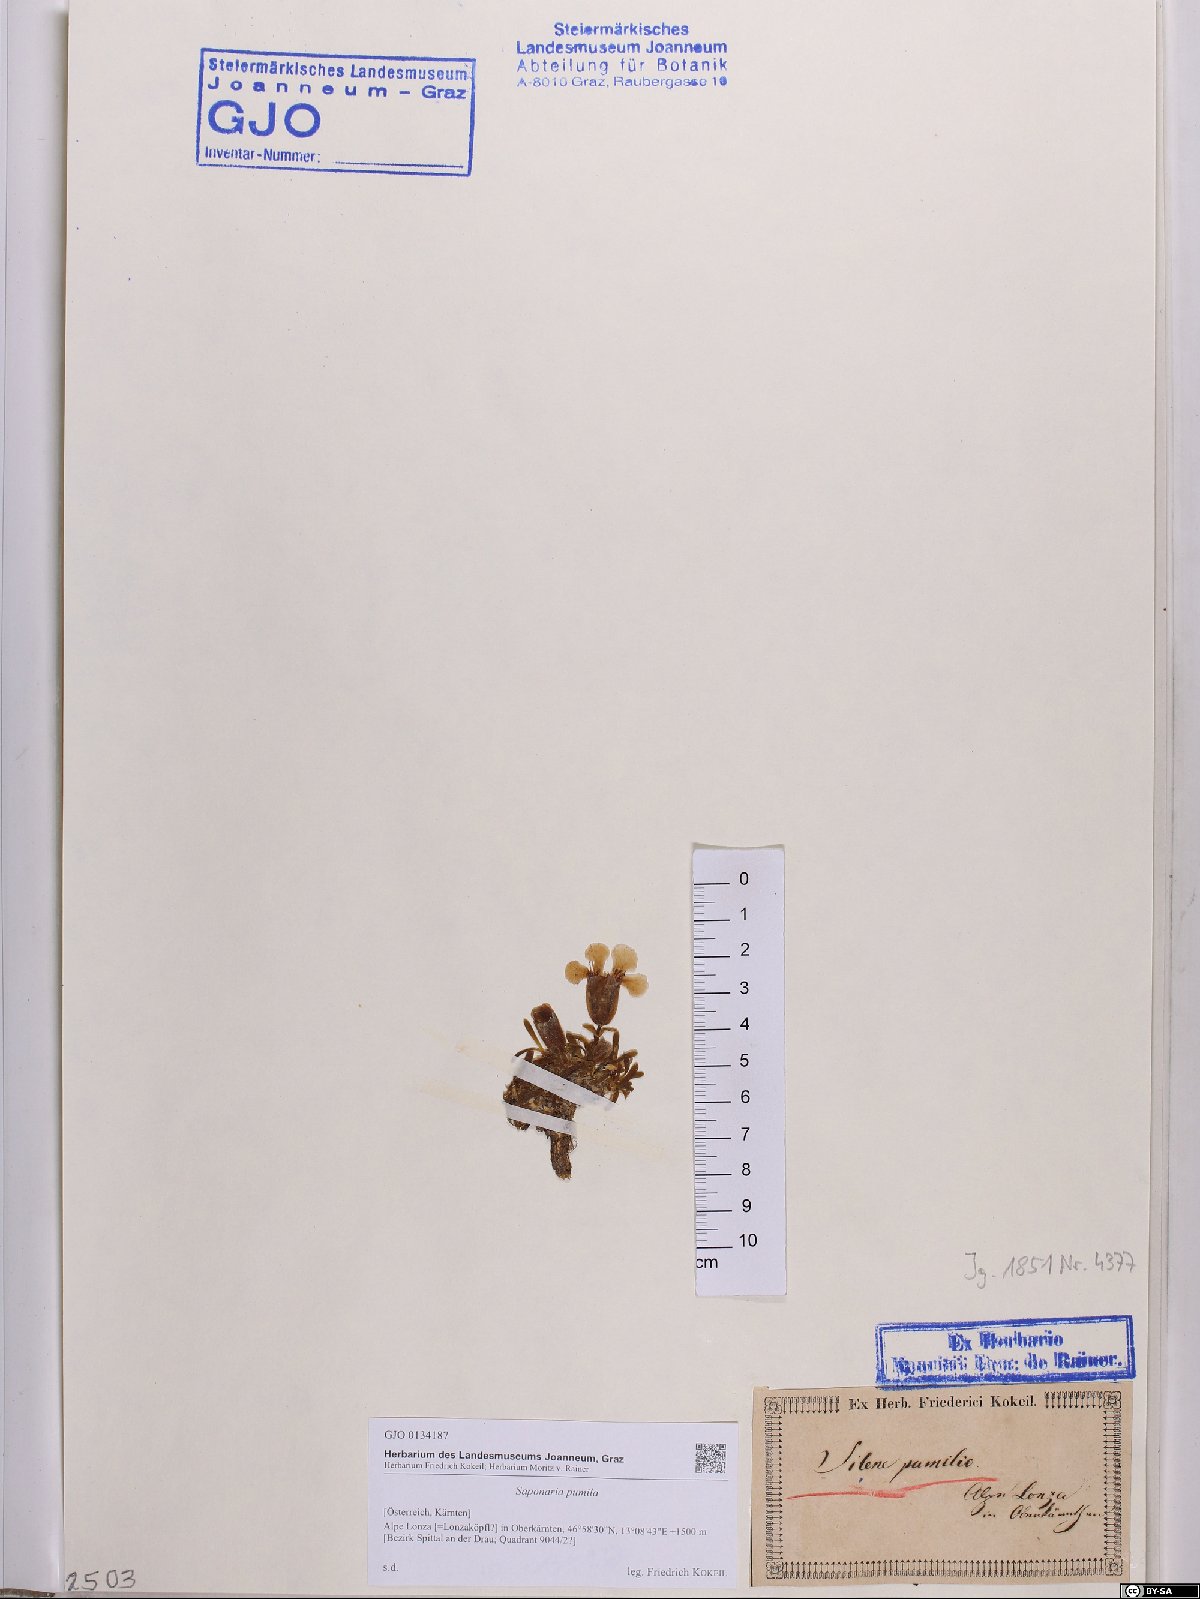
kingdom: Plantae
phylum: Tracheophyta
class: Magnoliopsida
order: Caryophyllales
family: Caryophyllaceae
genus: Saponaria
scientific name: Saponaria pumila
